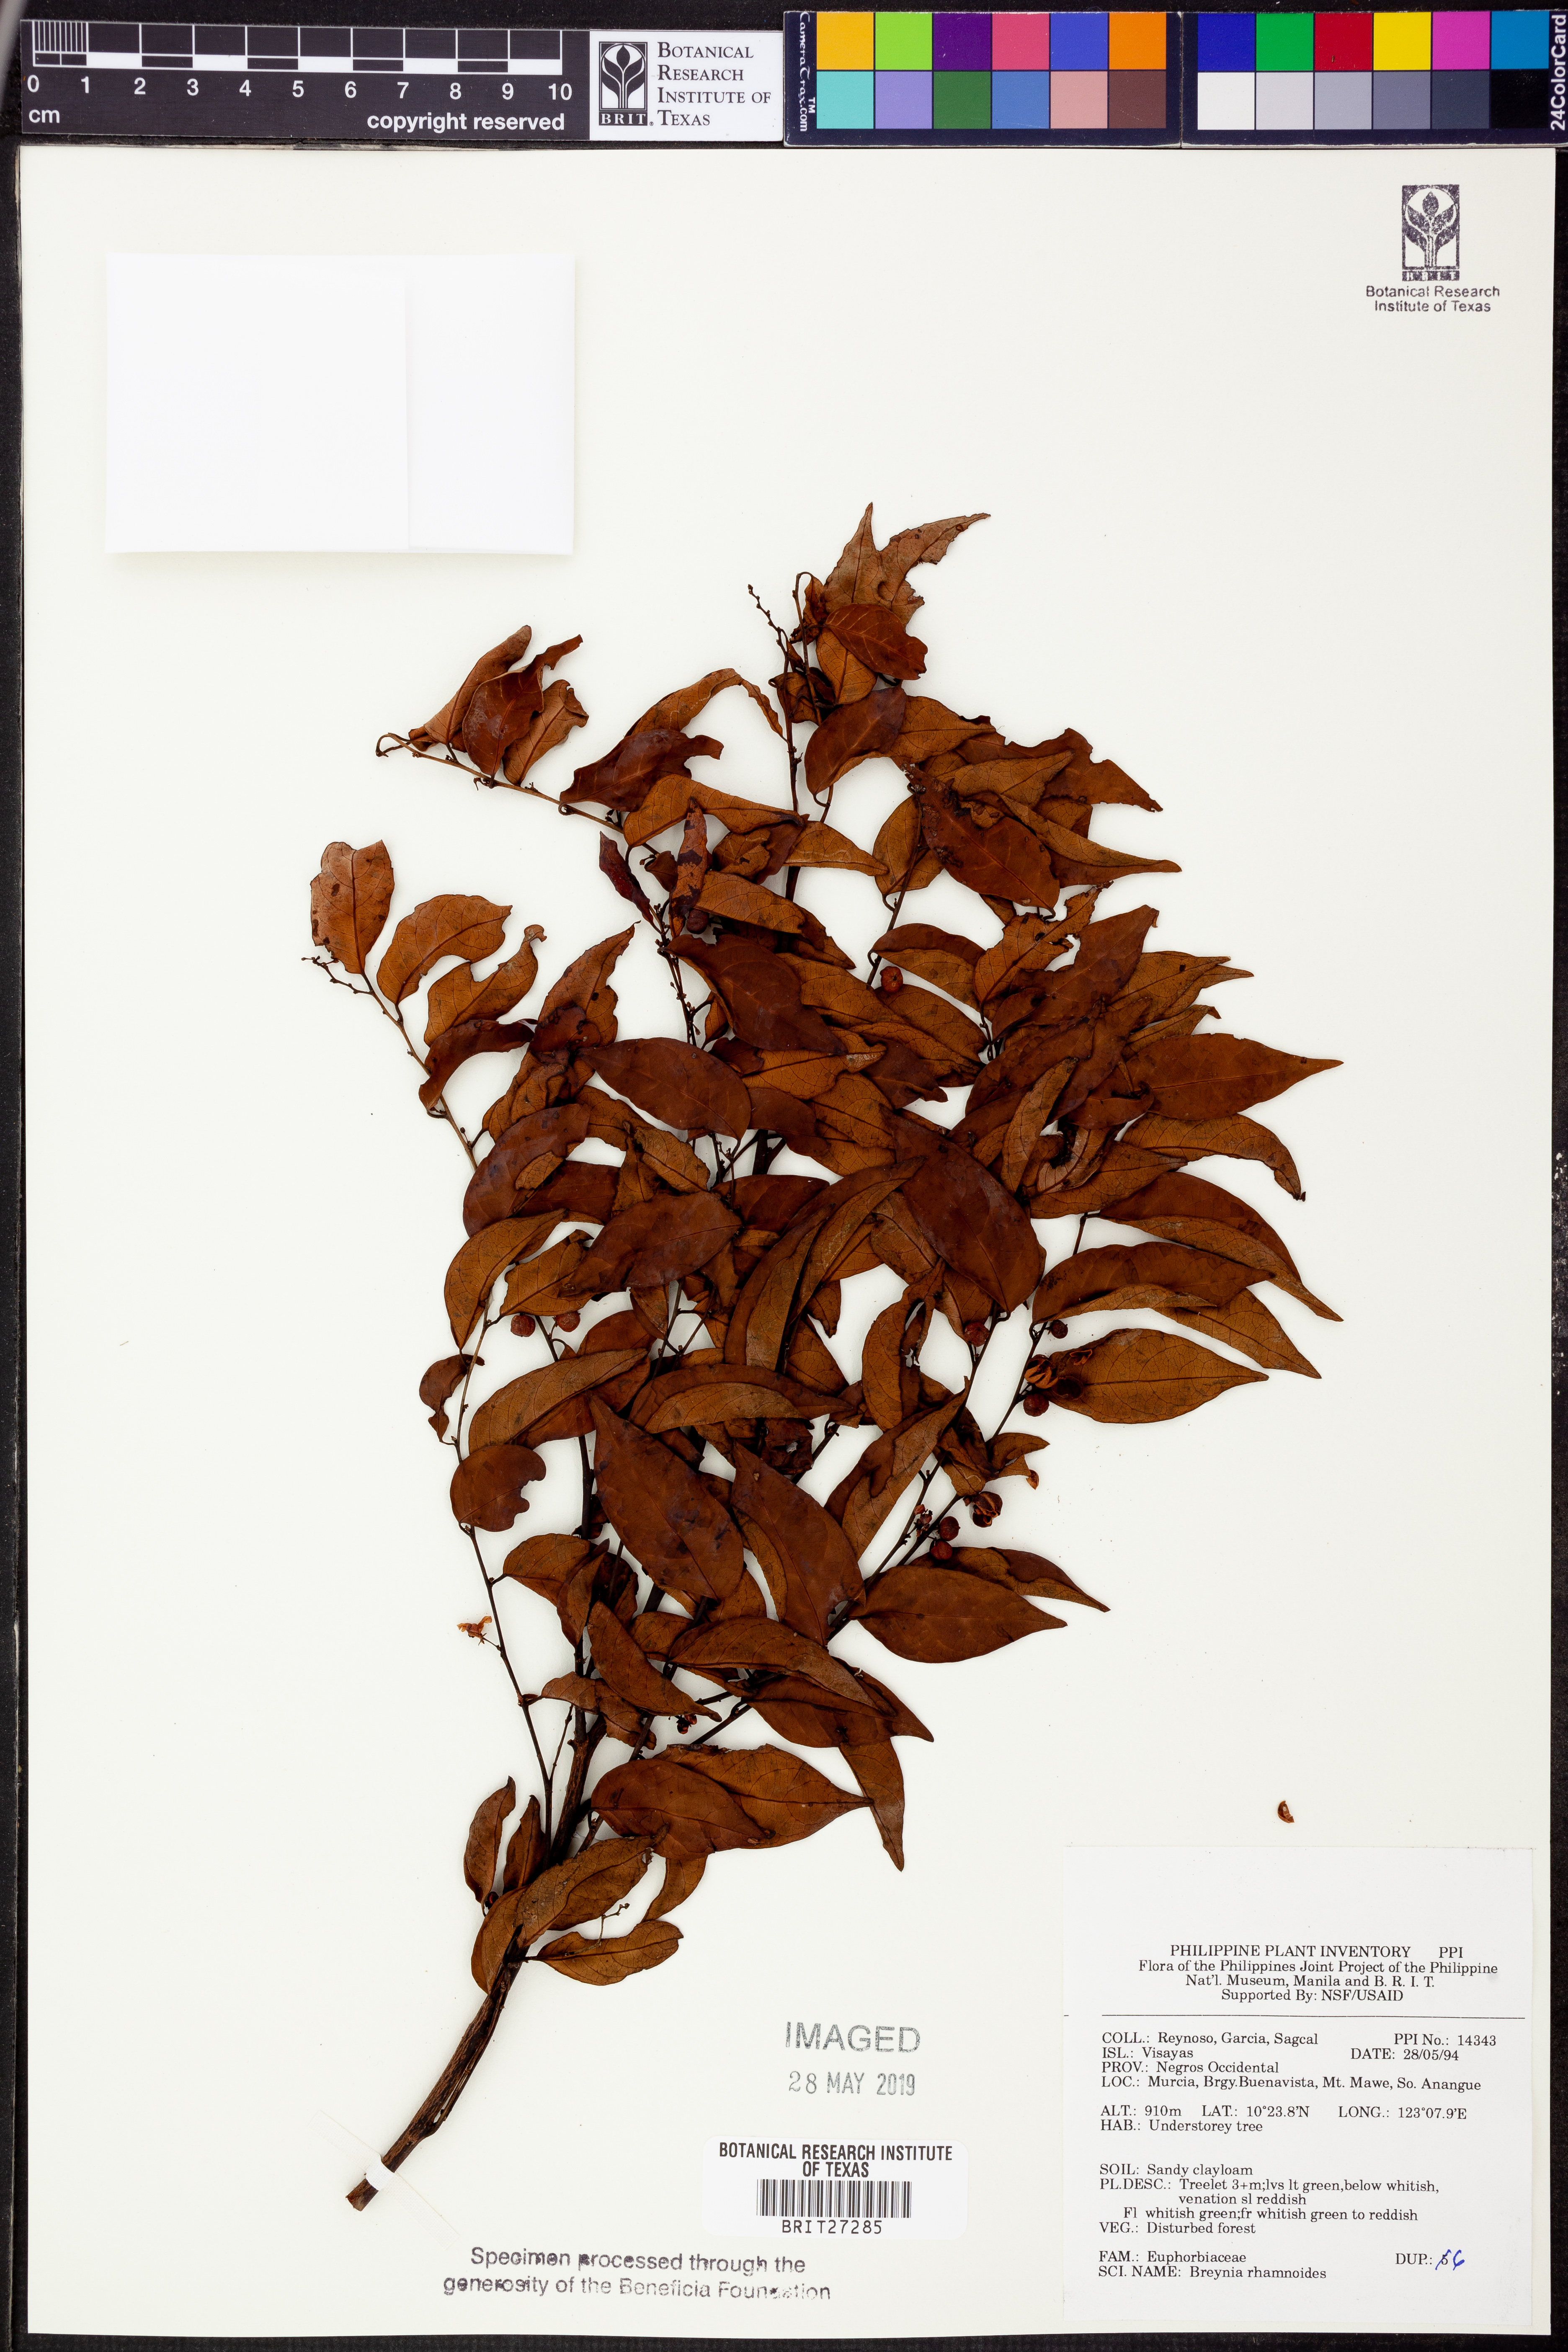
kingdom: Plantae
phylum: Tracheophyta
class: Magnoliopsida
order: Malpighiales
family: Phyllanthaceae
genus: Breynia
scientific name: Breynia vitis-idaea
